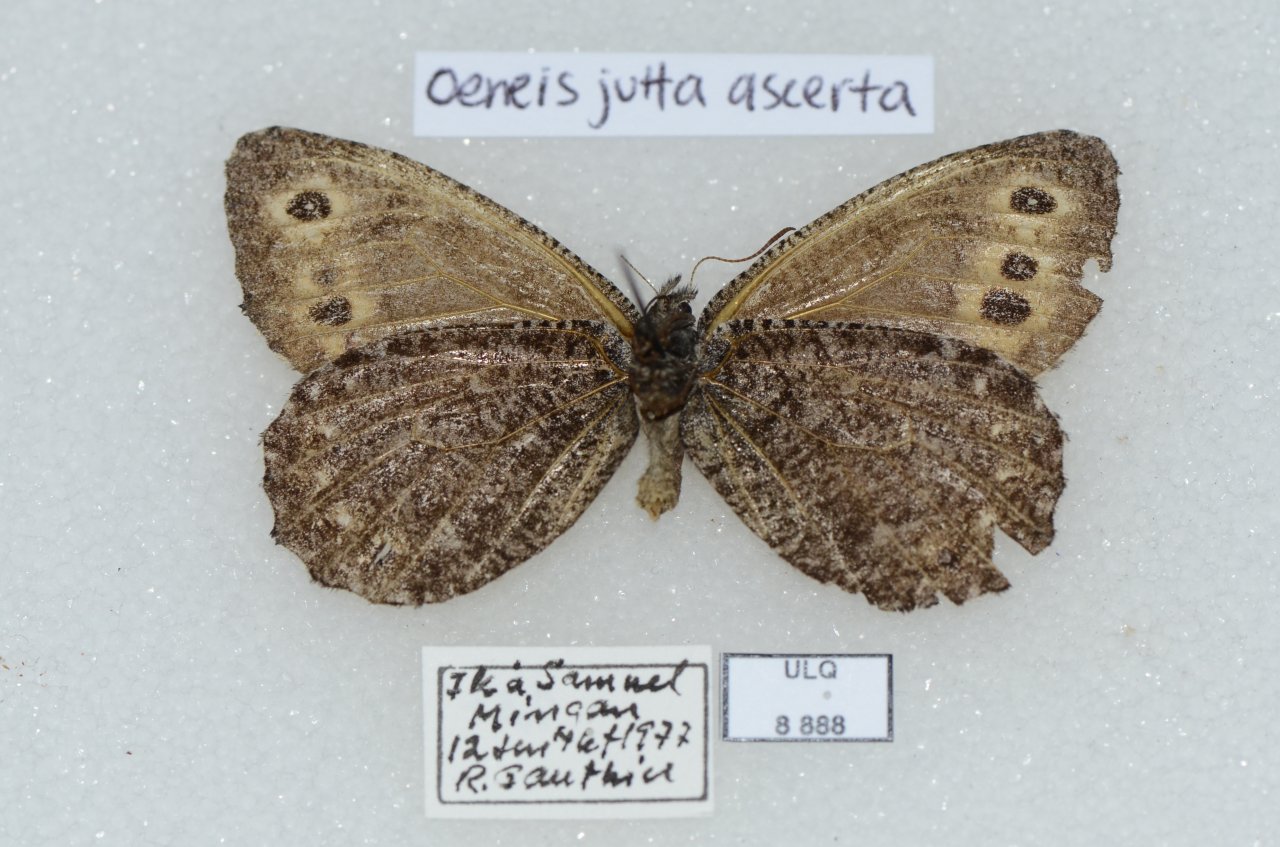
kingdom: Animalia
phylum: Arthropoda
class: Insecta
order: Lepidoptera
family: Nymphalidae
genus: Oeneis
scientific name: Oeneis jutta
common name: Jutta Arctic
